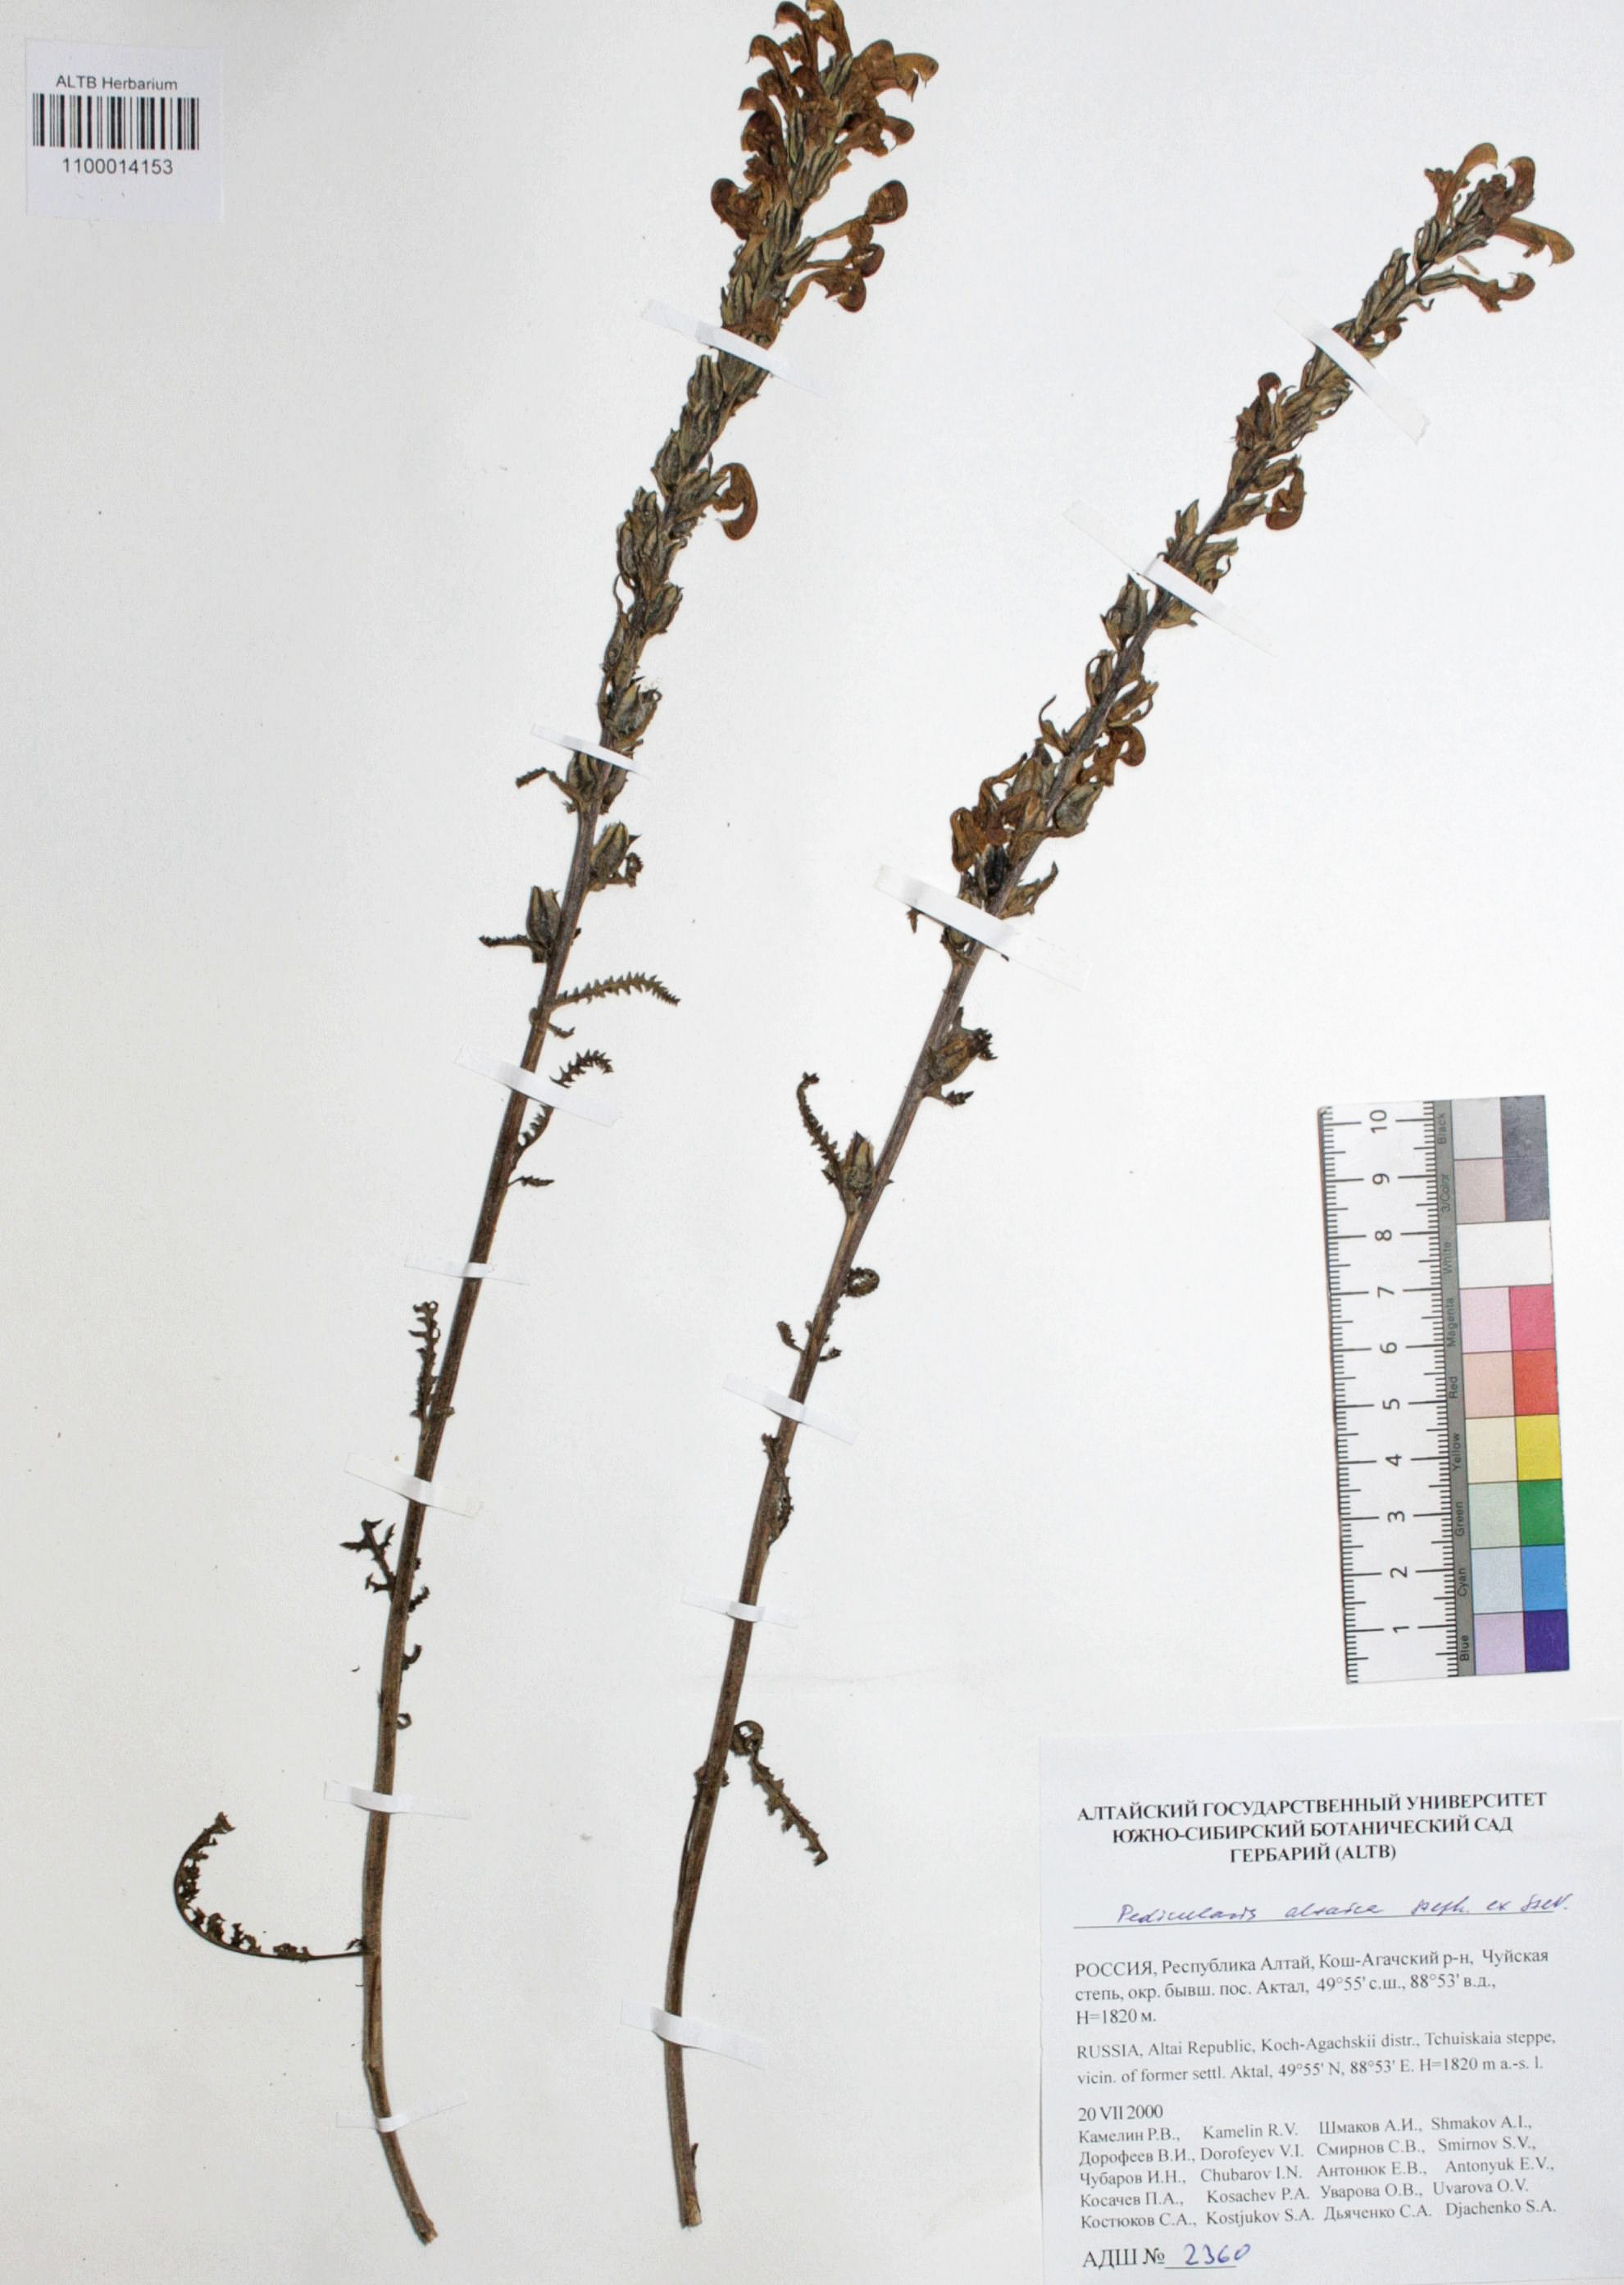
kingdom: Plantae
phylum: Tracheophyta
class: Magnoliopsida
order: Lamiales
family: Orobanchaceae
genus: Pedicularis
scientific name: Pedicularis altaica
